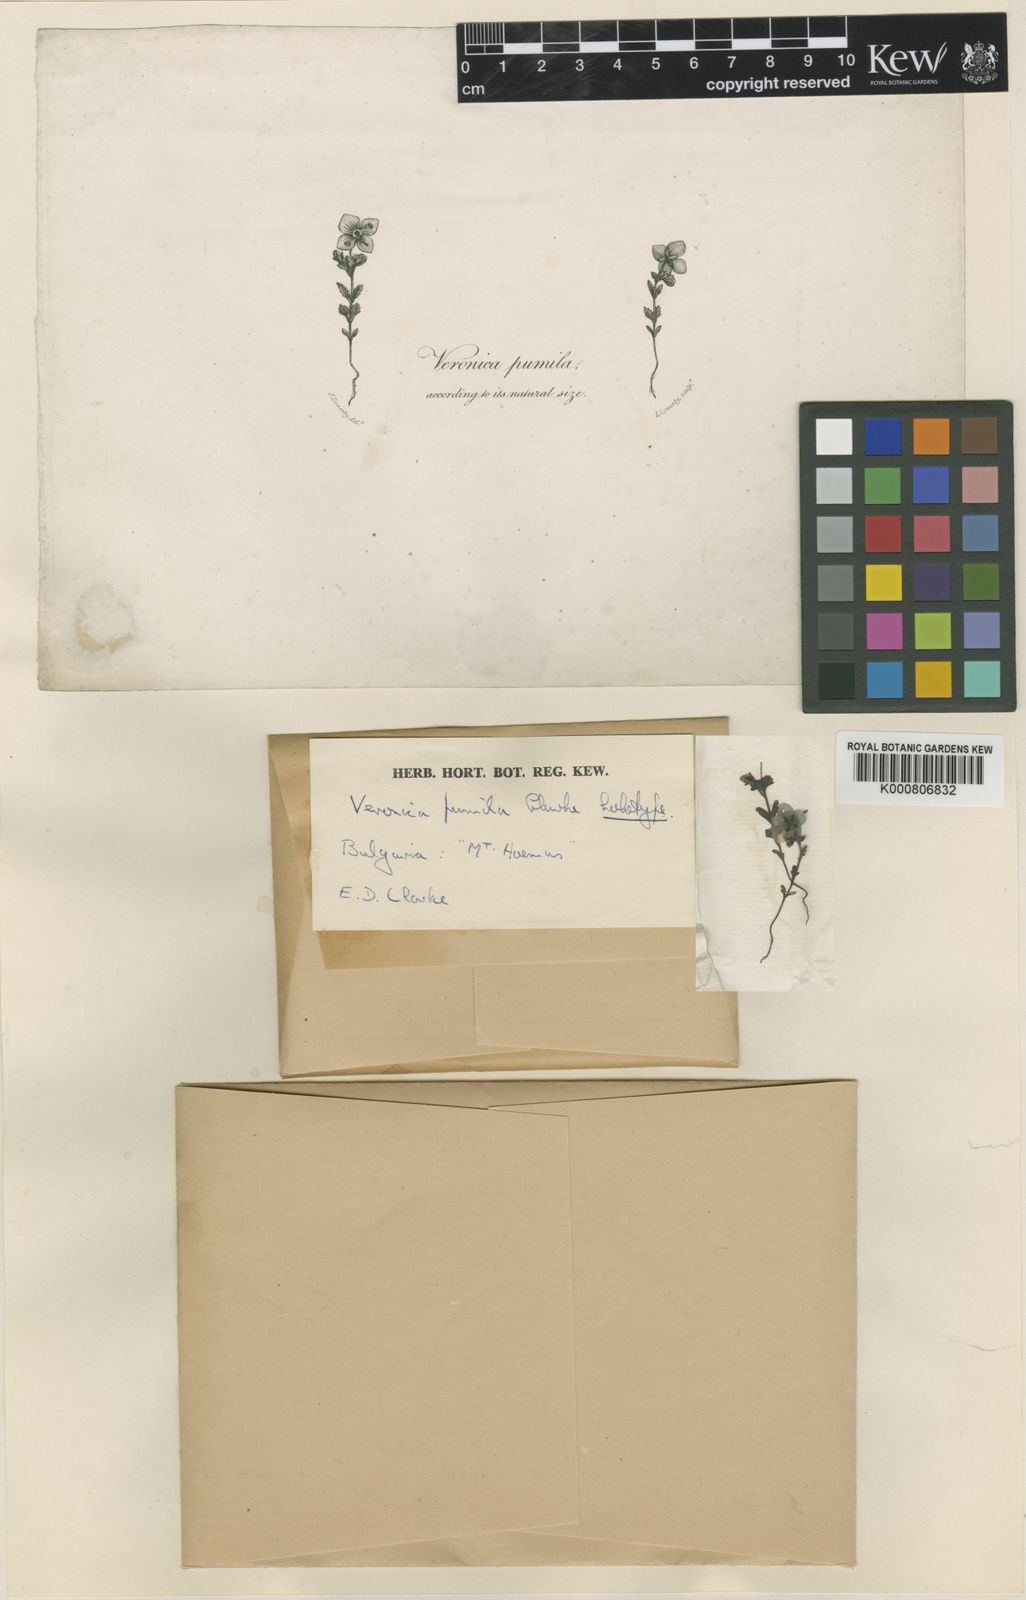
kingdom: Plantae
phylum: Tracheophyta
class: Magnoliopsida
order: Lamiales
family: Plantaginaceae
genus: Veronica
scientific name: Veronica
